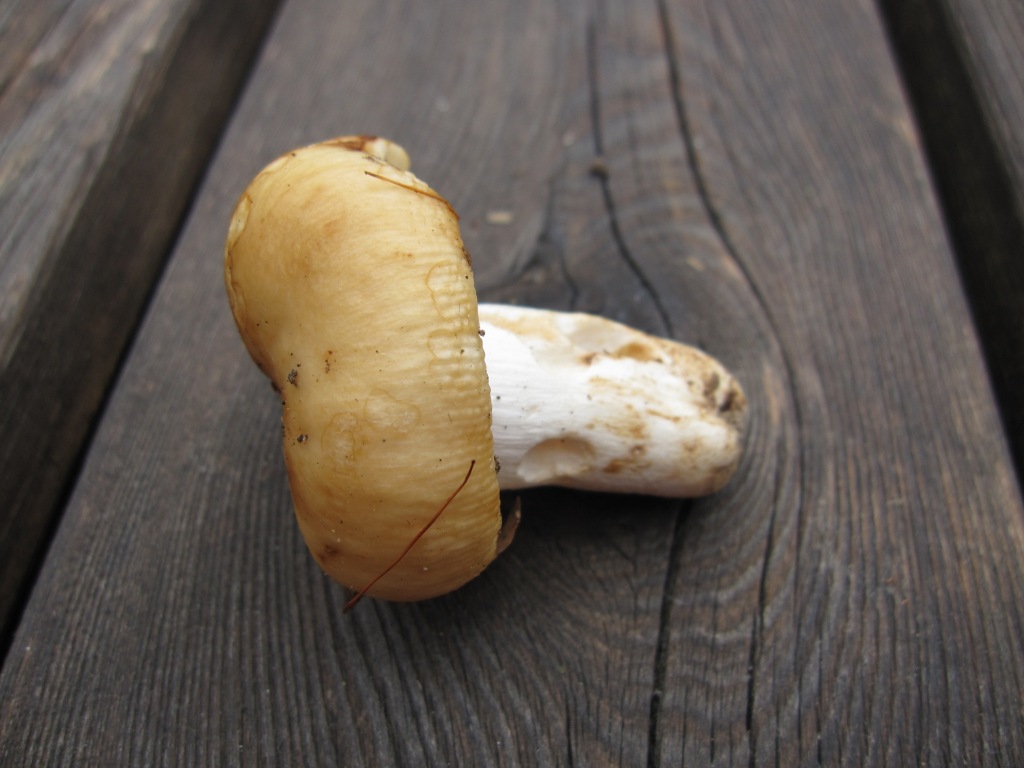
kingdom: Fungi
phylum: Basidiomycota
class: Agaricomycetes
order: Russulales
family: Russulaceae
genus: Russula
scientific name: Russula grata
